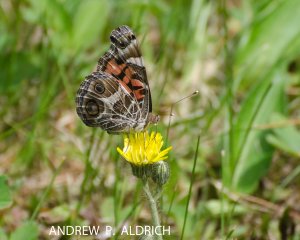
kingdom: Animalia
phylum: Arthropoda
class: Insecta
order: Lepidoptera
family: Nymphalidae
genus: Vanessa
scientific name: Vanessa virginiensis
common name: American Lady
